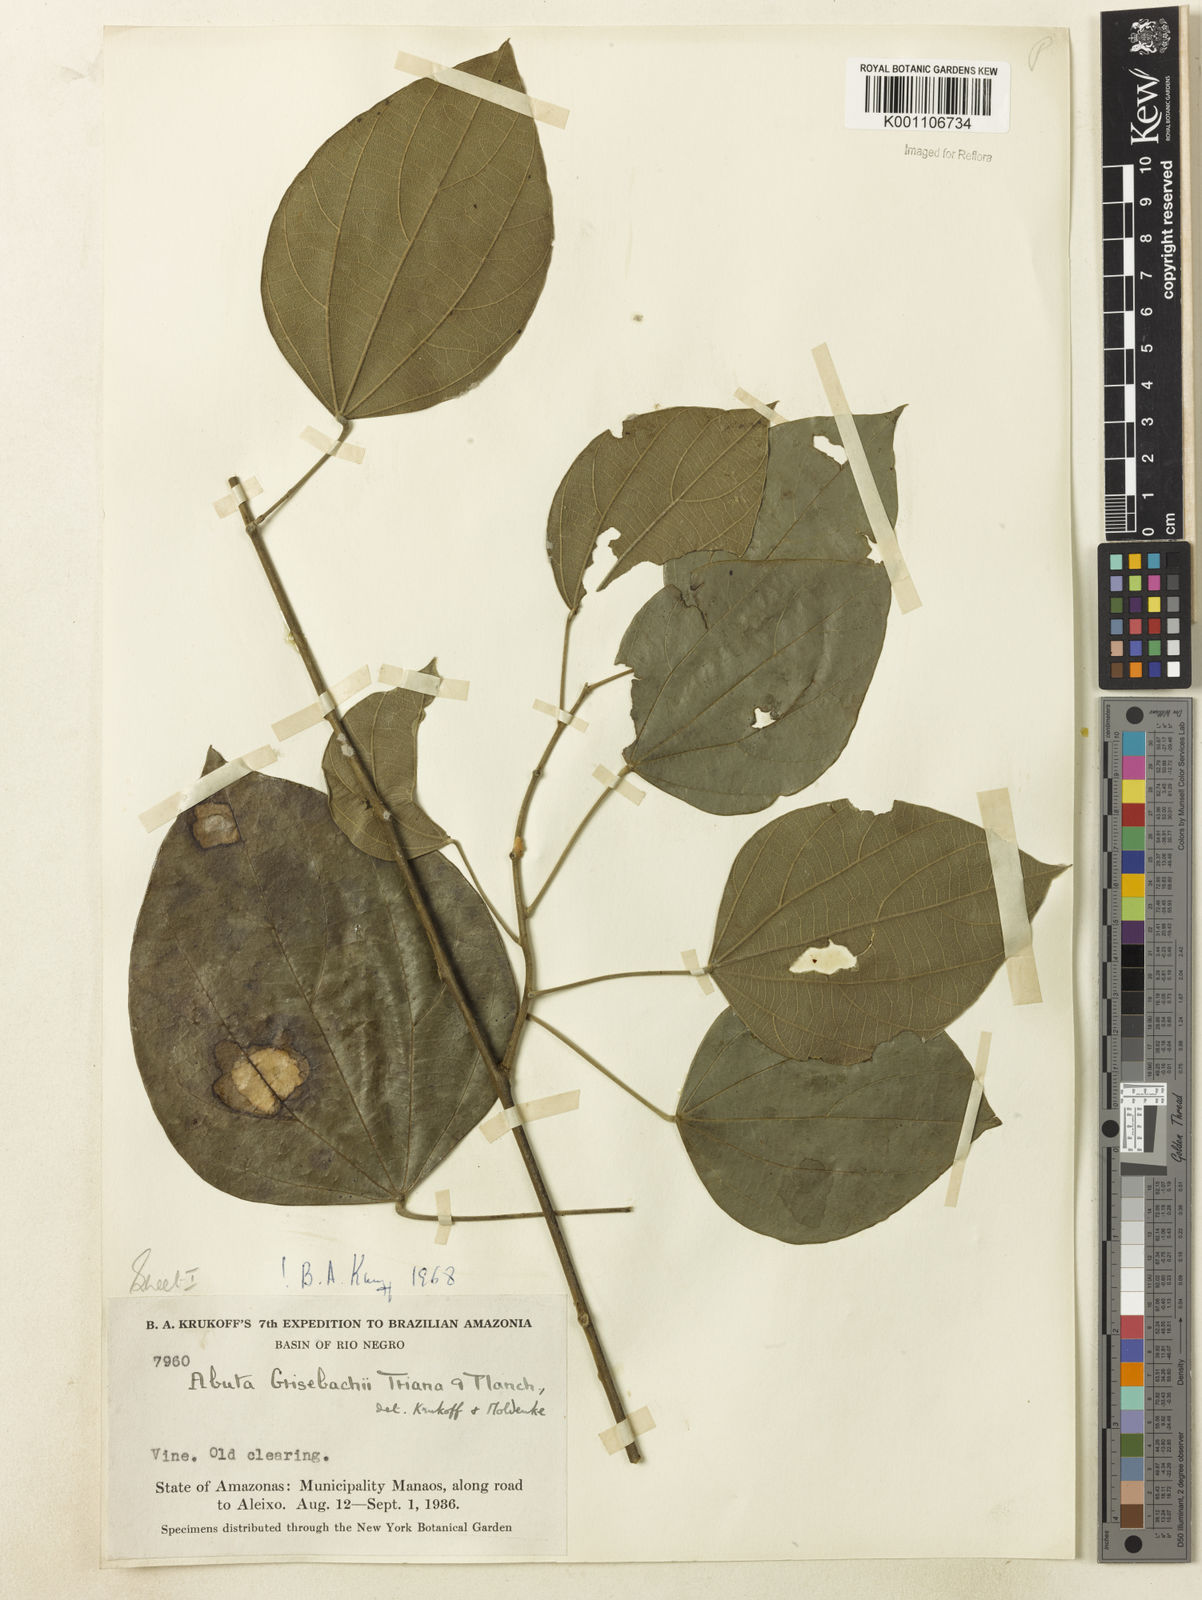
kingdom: Plantae
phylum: Tracheophyta
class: Magnoliopsida
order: Ranunculales
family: Menispermaceae
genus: Abuta
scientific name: Abuta grisebachii
